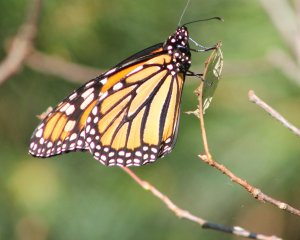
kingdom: Animalia
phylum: Arthropoda
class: Insecta
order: Lepidoptera
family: Nymphalidae
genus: Danaus
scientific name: Danaus plexippus
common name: Monarch
